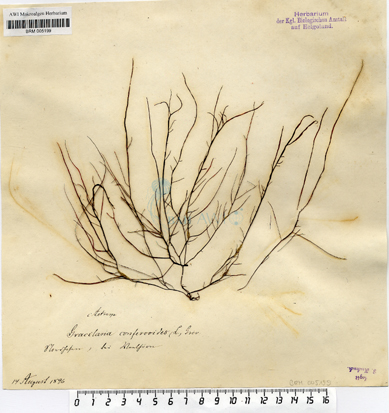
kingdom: Plantae
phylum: Rhodophyta
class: Florideophyceae
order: Gracilariales
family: Gracilariaceae
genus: Gracilaria
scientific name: Gracilaria gracilis
